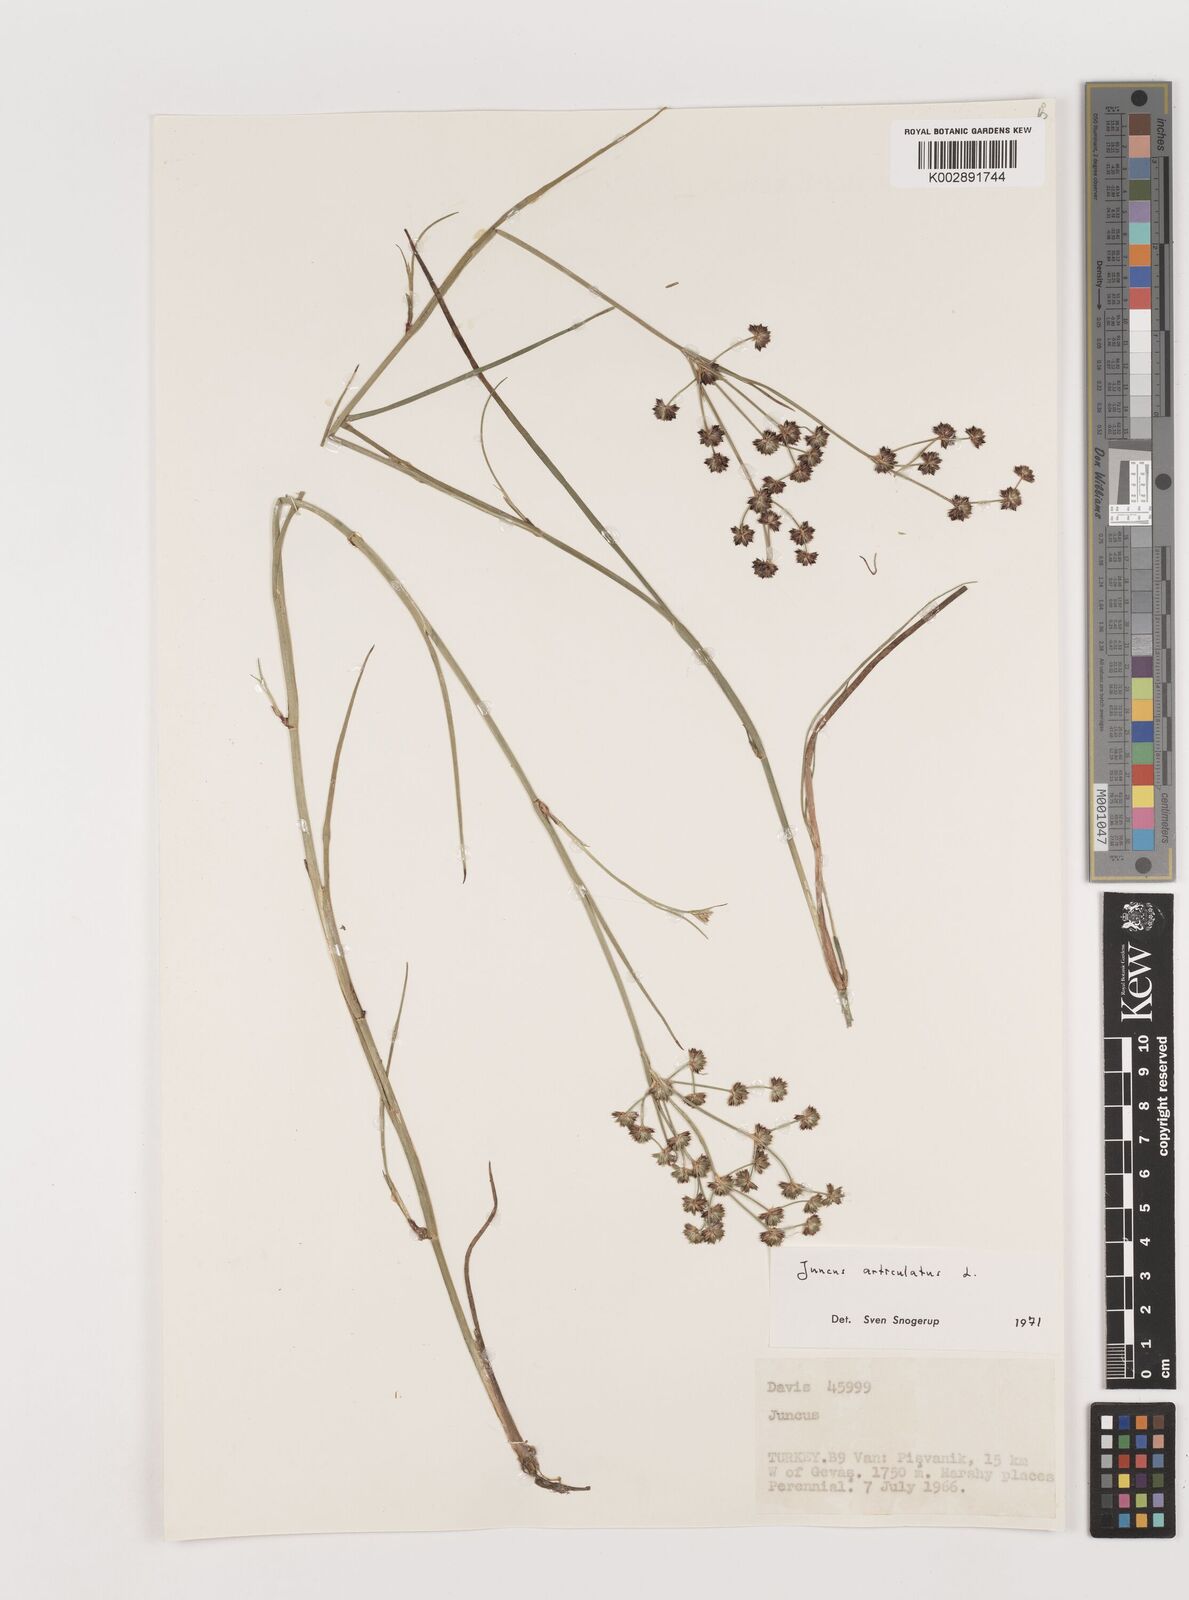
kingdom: Plantae
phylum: Tracheophyta
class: Liliopsida
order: Poales
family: Juncaceae
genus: Juncus
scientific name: Juncus articulatus
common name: Jointed rush
